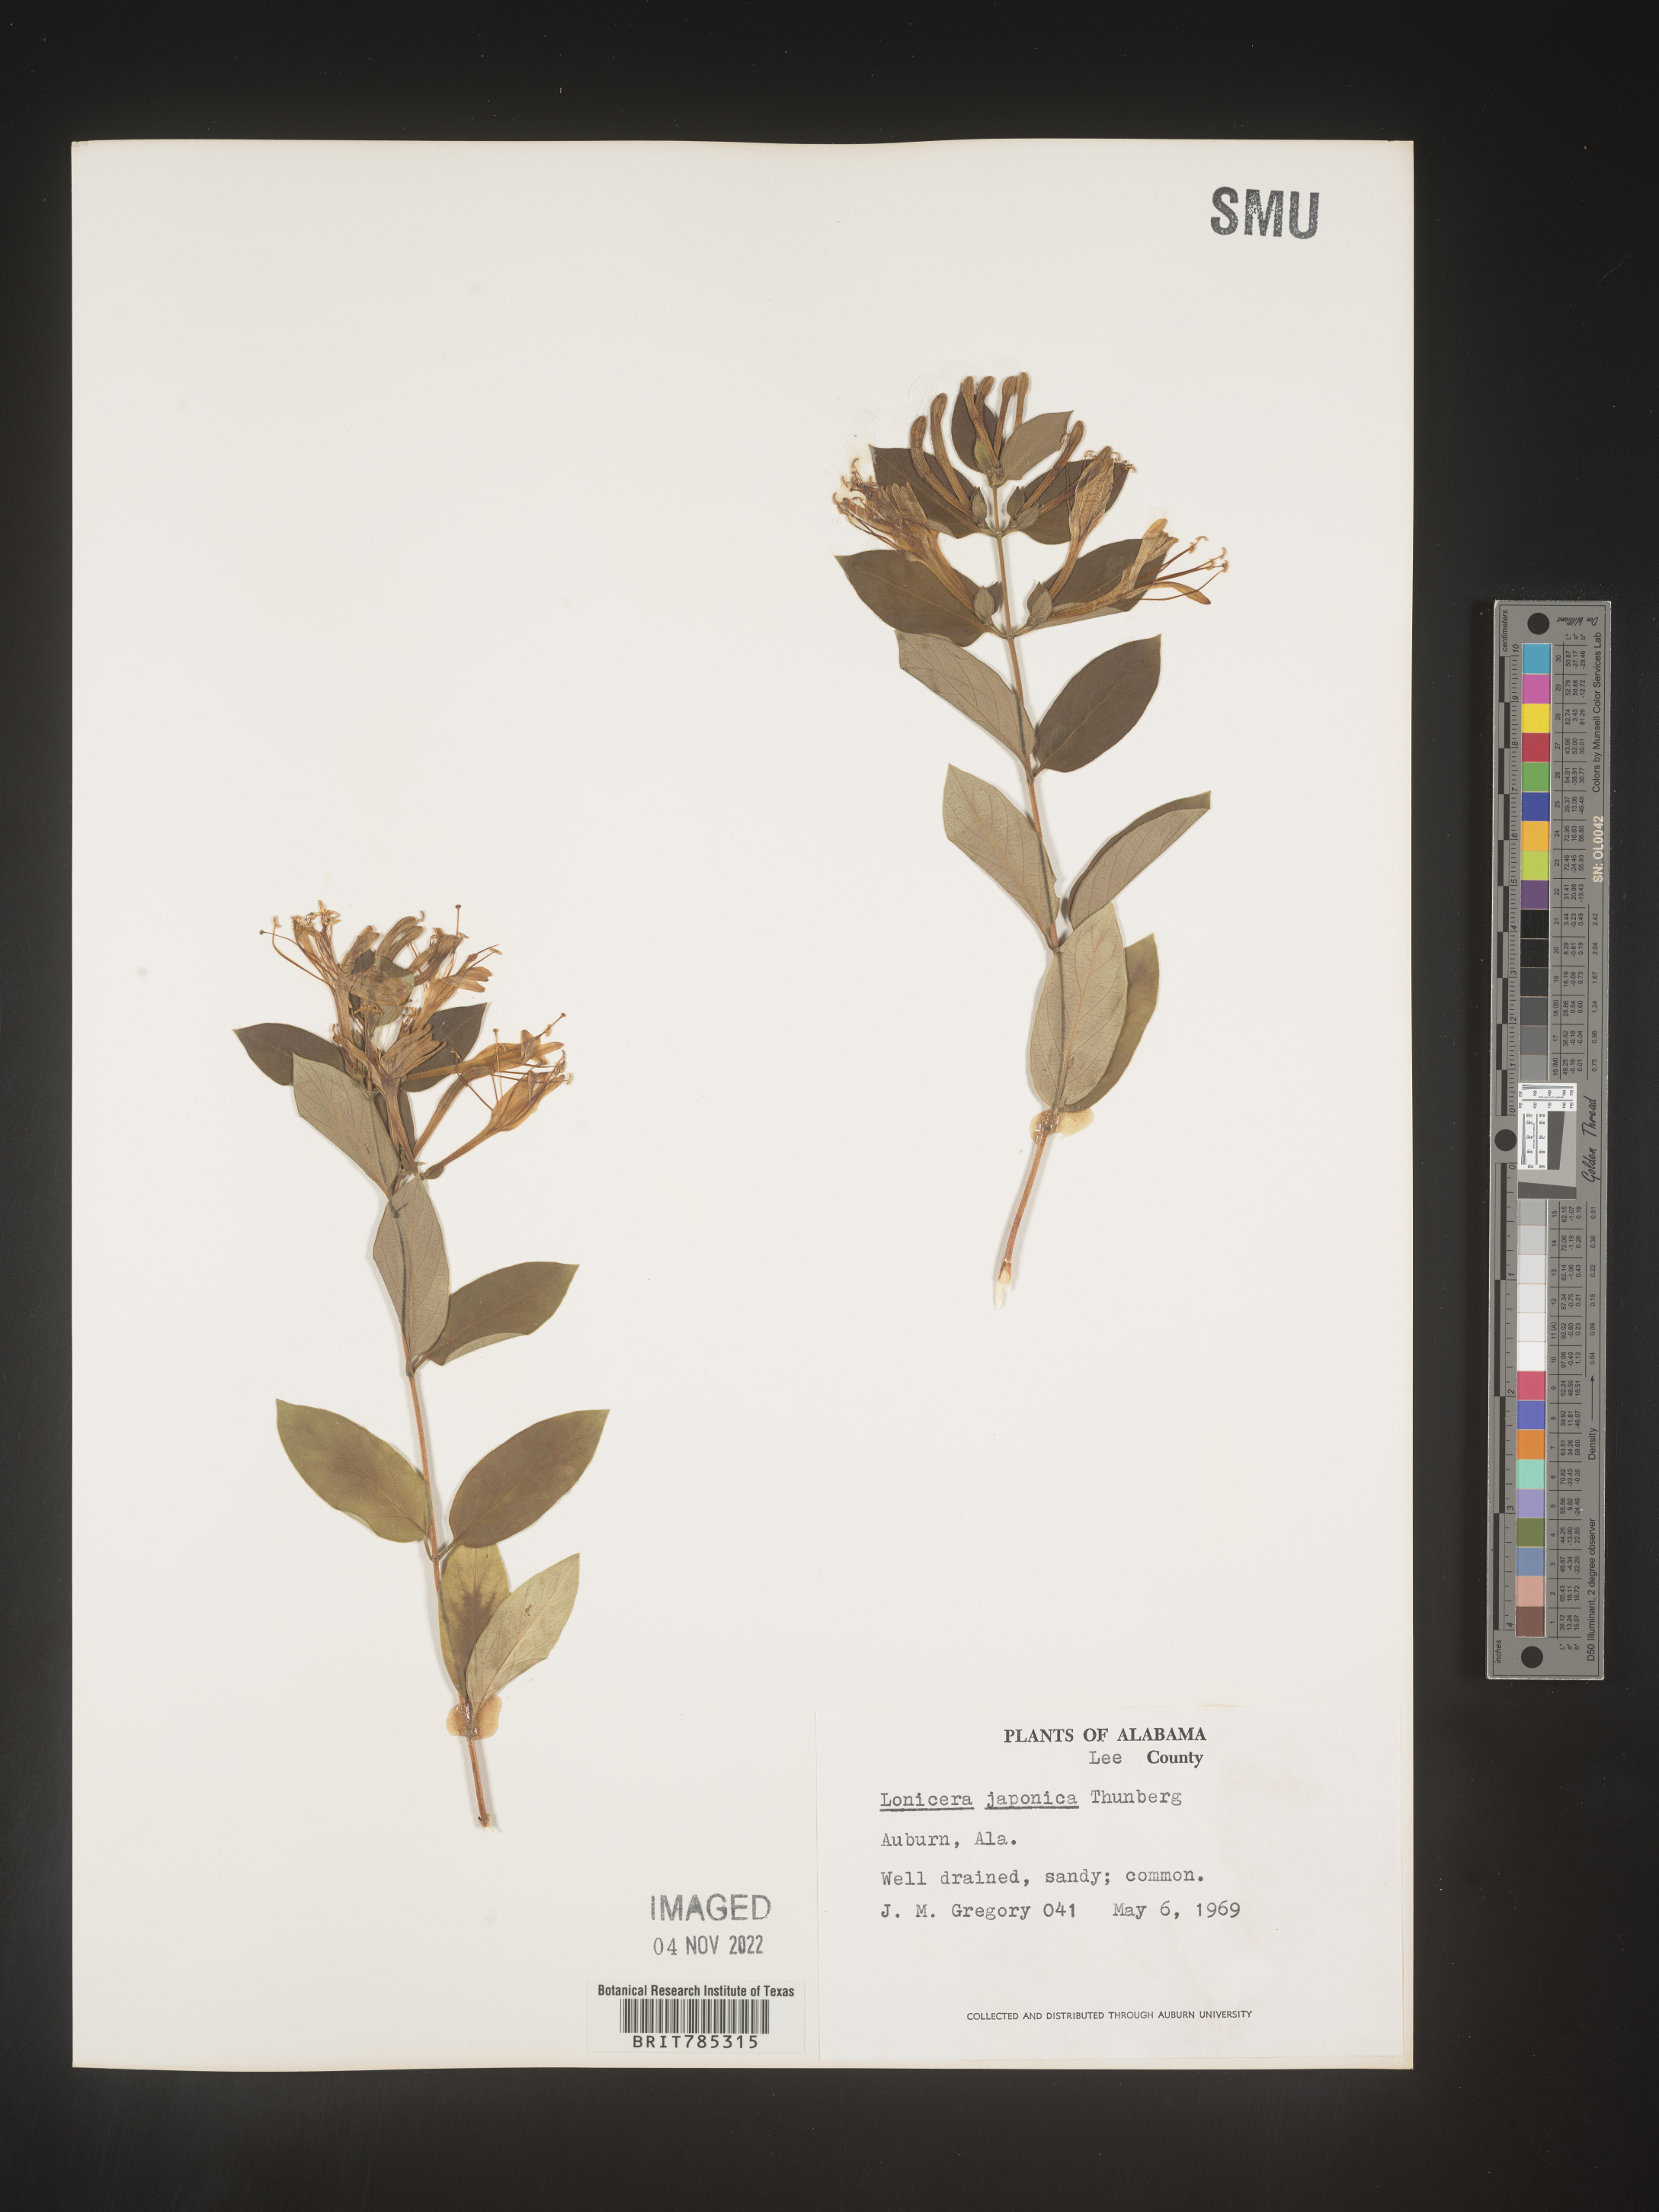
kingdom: Plantae
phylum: Tracheophyta
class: Magnoliopsida
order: Dipsacales
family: Caprifoliaceae
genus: Lonicera
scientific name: Lonicera japonica
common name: Japanese honeysuckle
